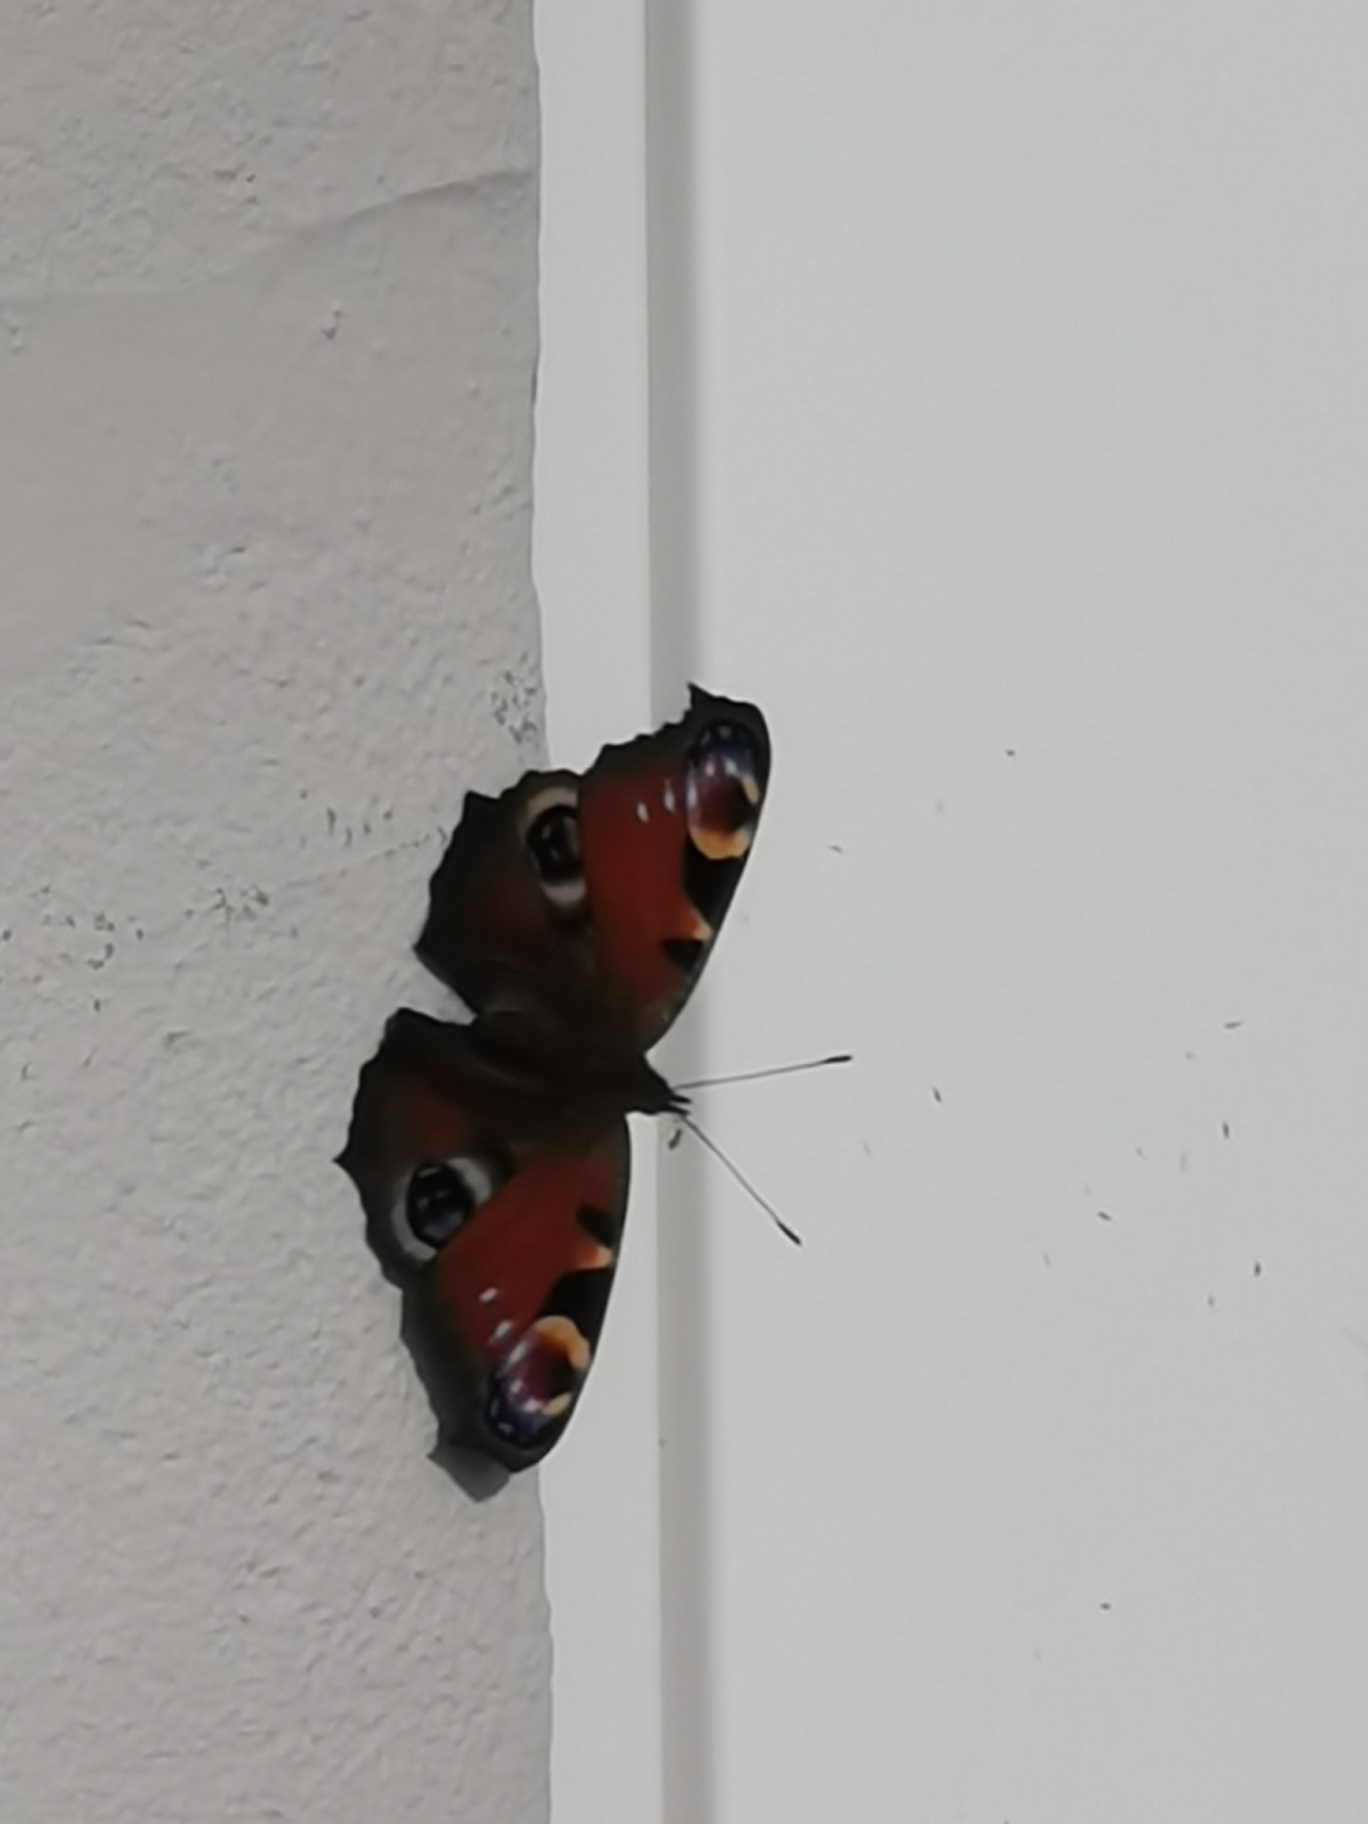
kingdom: Animalia
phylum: Arthropoda
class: Insecta
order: Lepidoptera
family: Nymphalidae
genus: Aglais
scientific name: Aglais io
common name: Dagpåfugleøje
